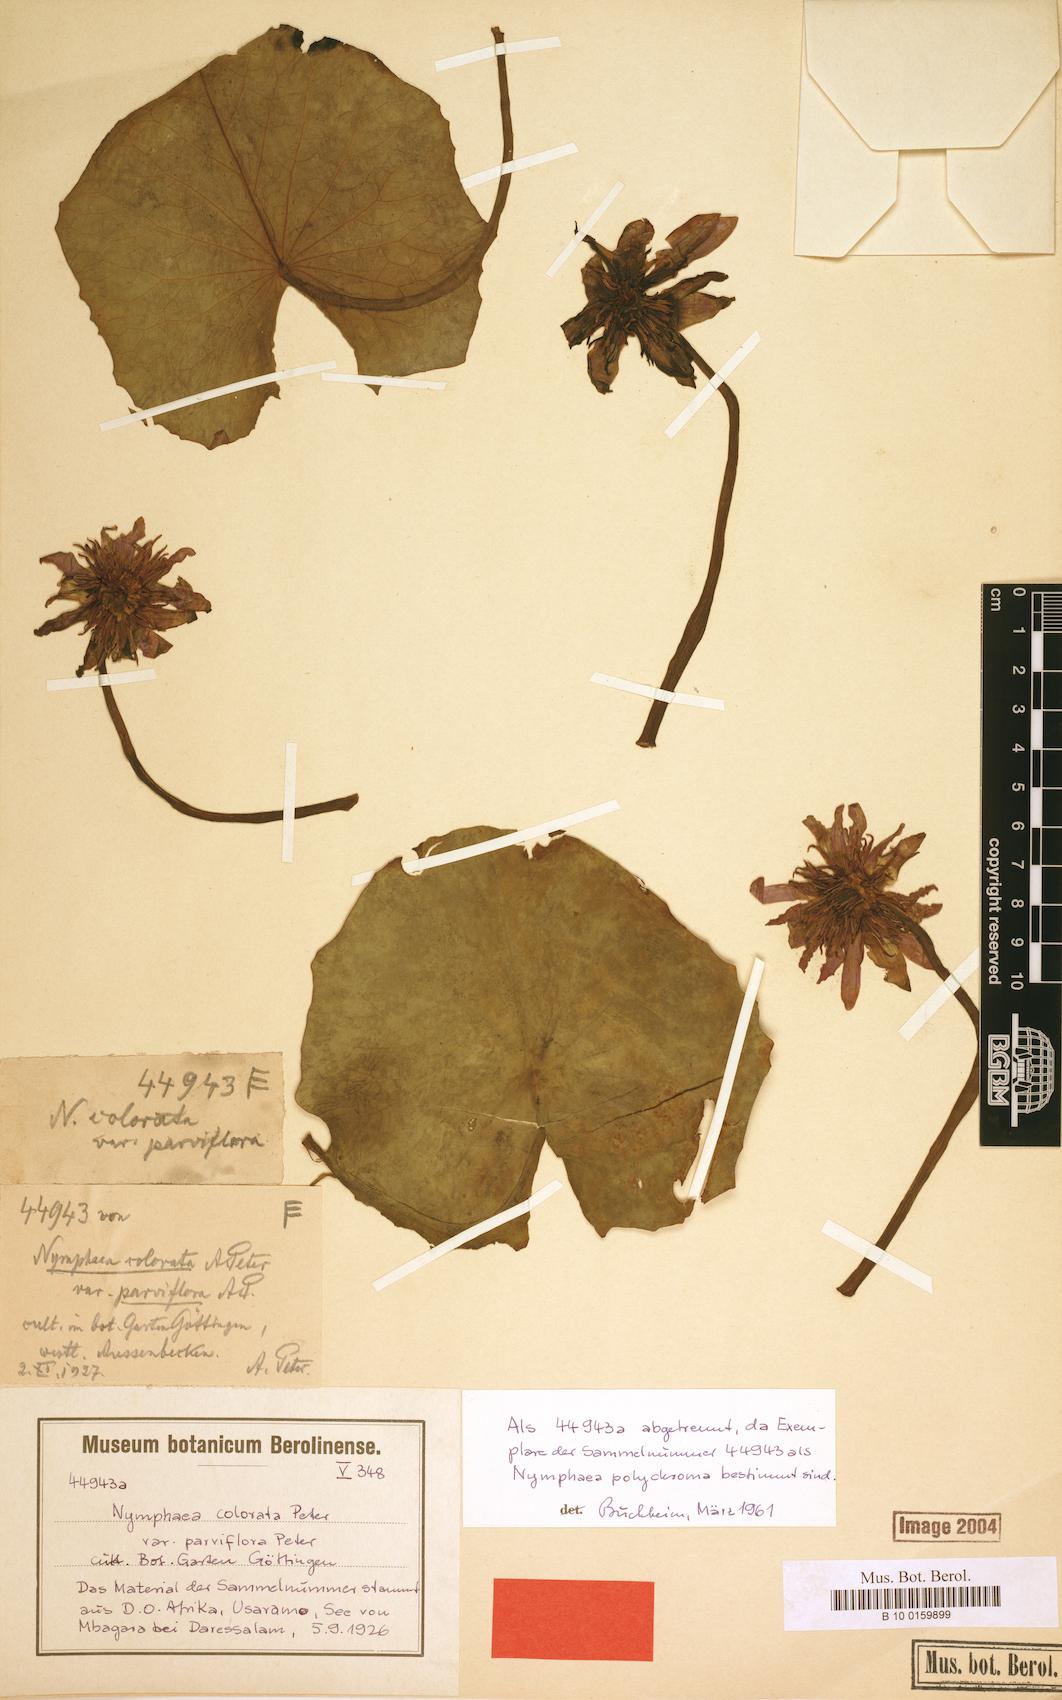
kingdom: Plantae
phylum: Tracheophyta
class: Magnoliopsida
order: Nymphaeales
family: Nymphaeaceae
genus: Nymphaea
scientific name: Nymphaea nouchali
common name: Blue lotus
